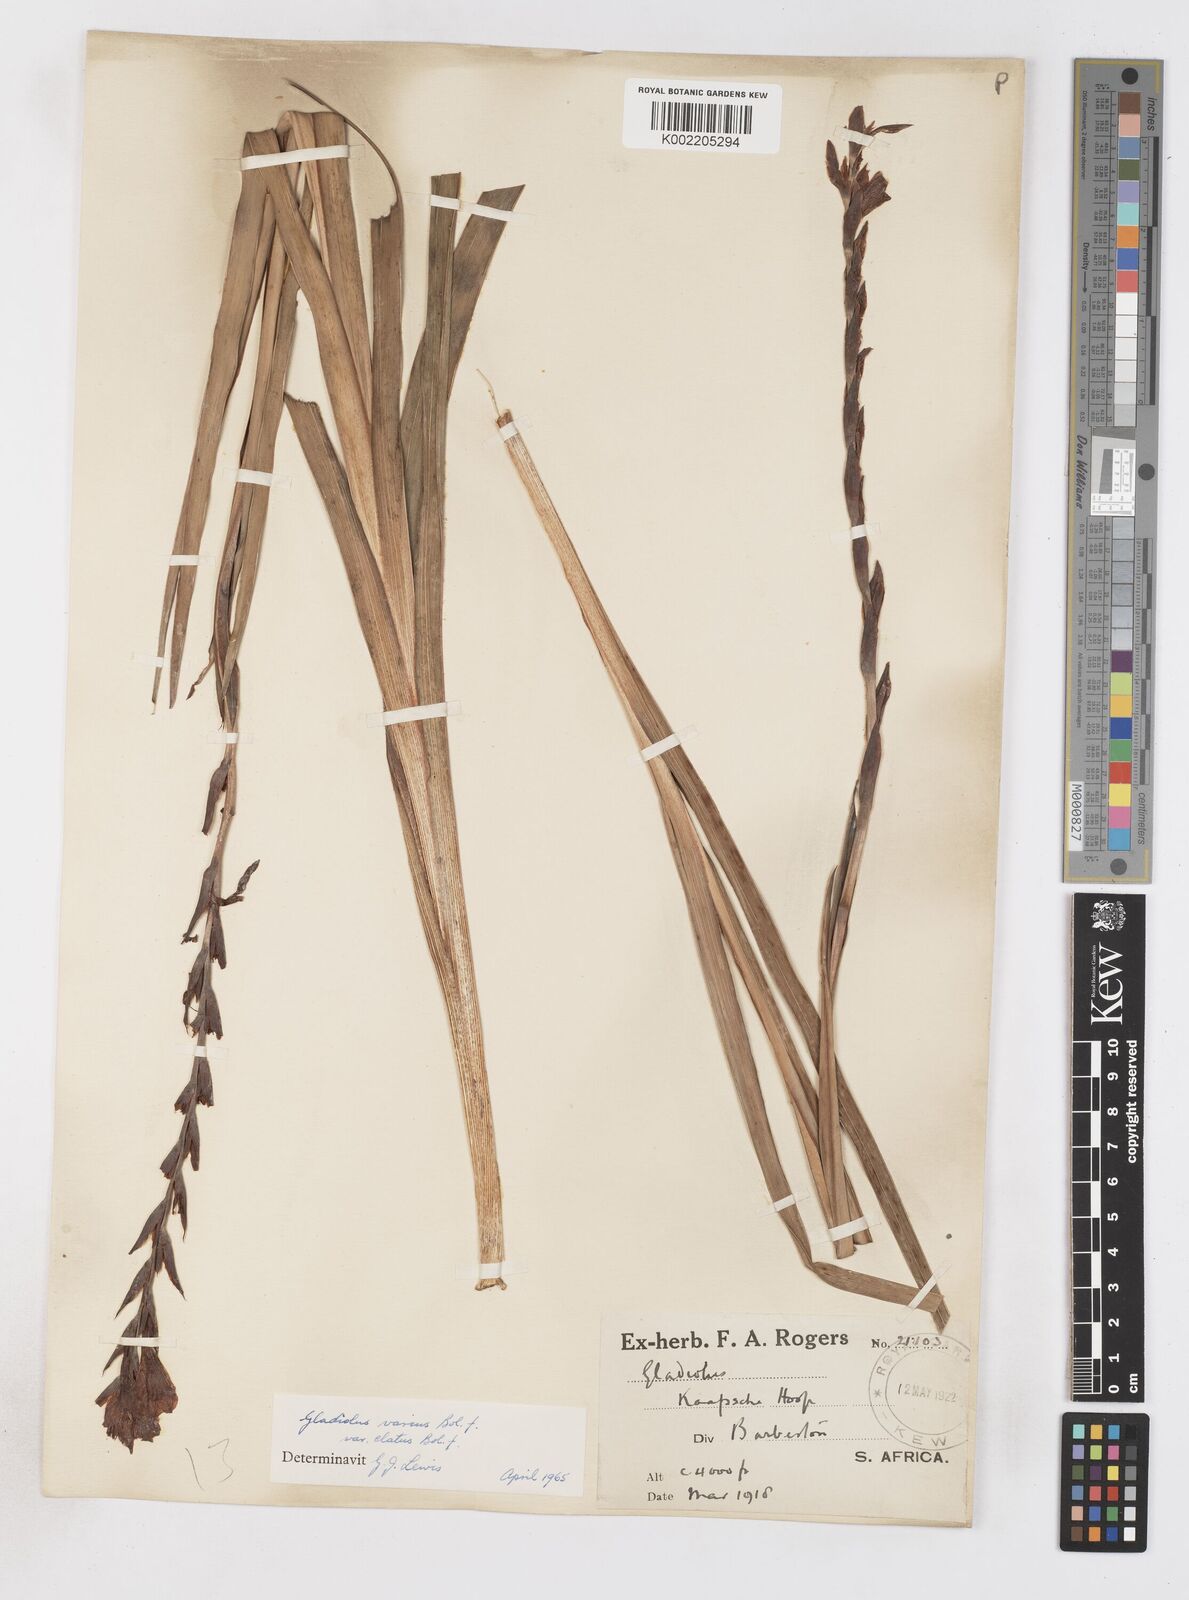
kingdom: Plantae
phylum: Tracheophyta
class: Liliopsida
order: Asparagales
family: Iridaceae
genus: Gladiolus
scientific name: Gladiolus hollandii
